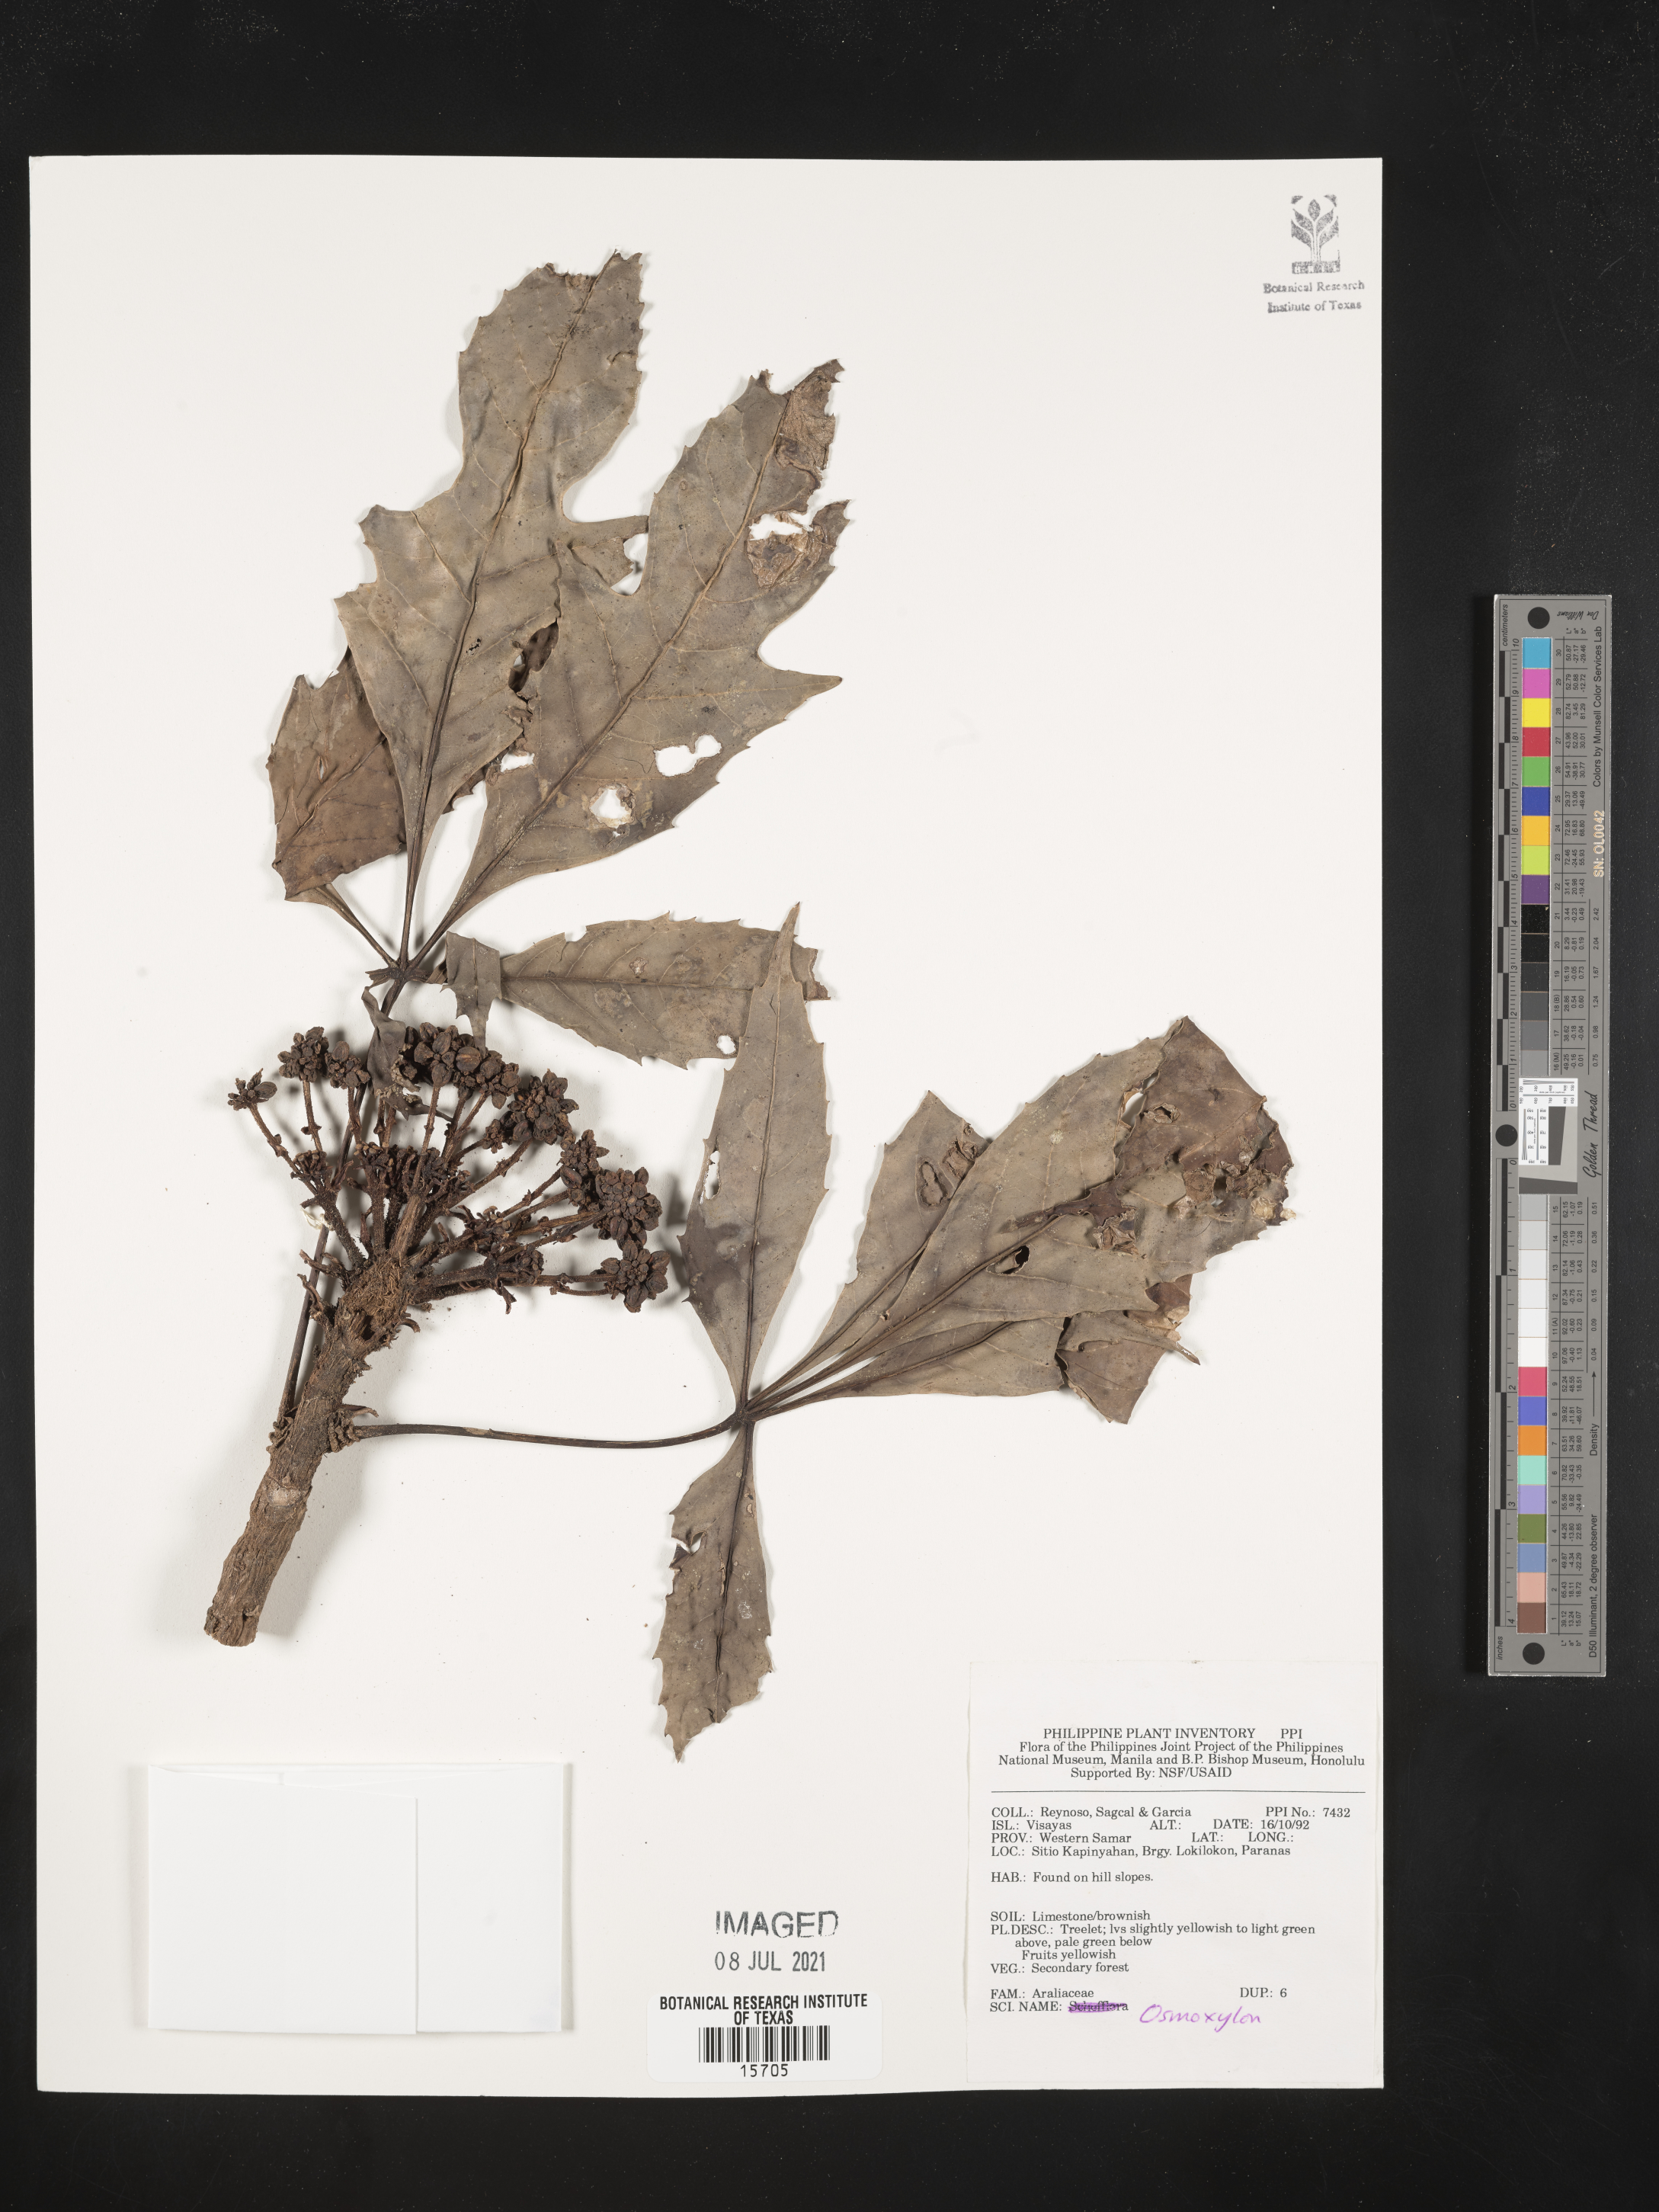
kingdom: Plantae
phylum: Tracheophyta
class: Magnoliopsida
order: Apiales
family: Araliaceae
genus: Osmoxylon
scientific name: Osmoxylon
